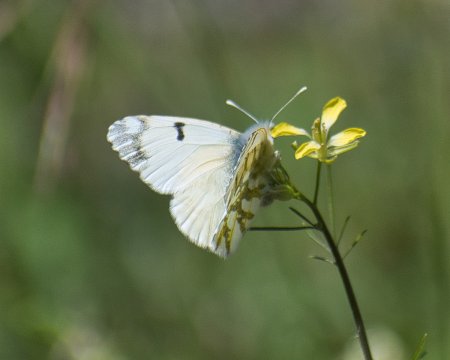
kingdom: Animalia
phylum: Arthropoda
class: Insecta
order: Lepidoptera
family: Pieridae
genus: Euchloe
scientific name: Euchloe ausonides
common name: Large Marble
